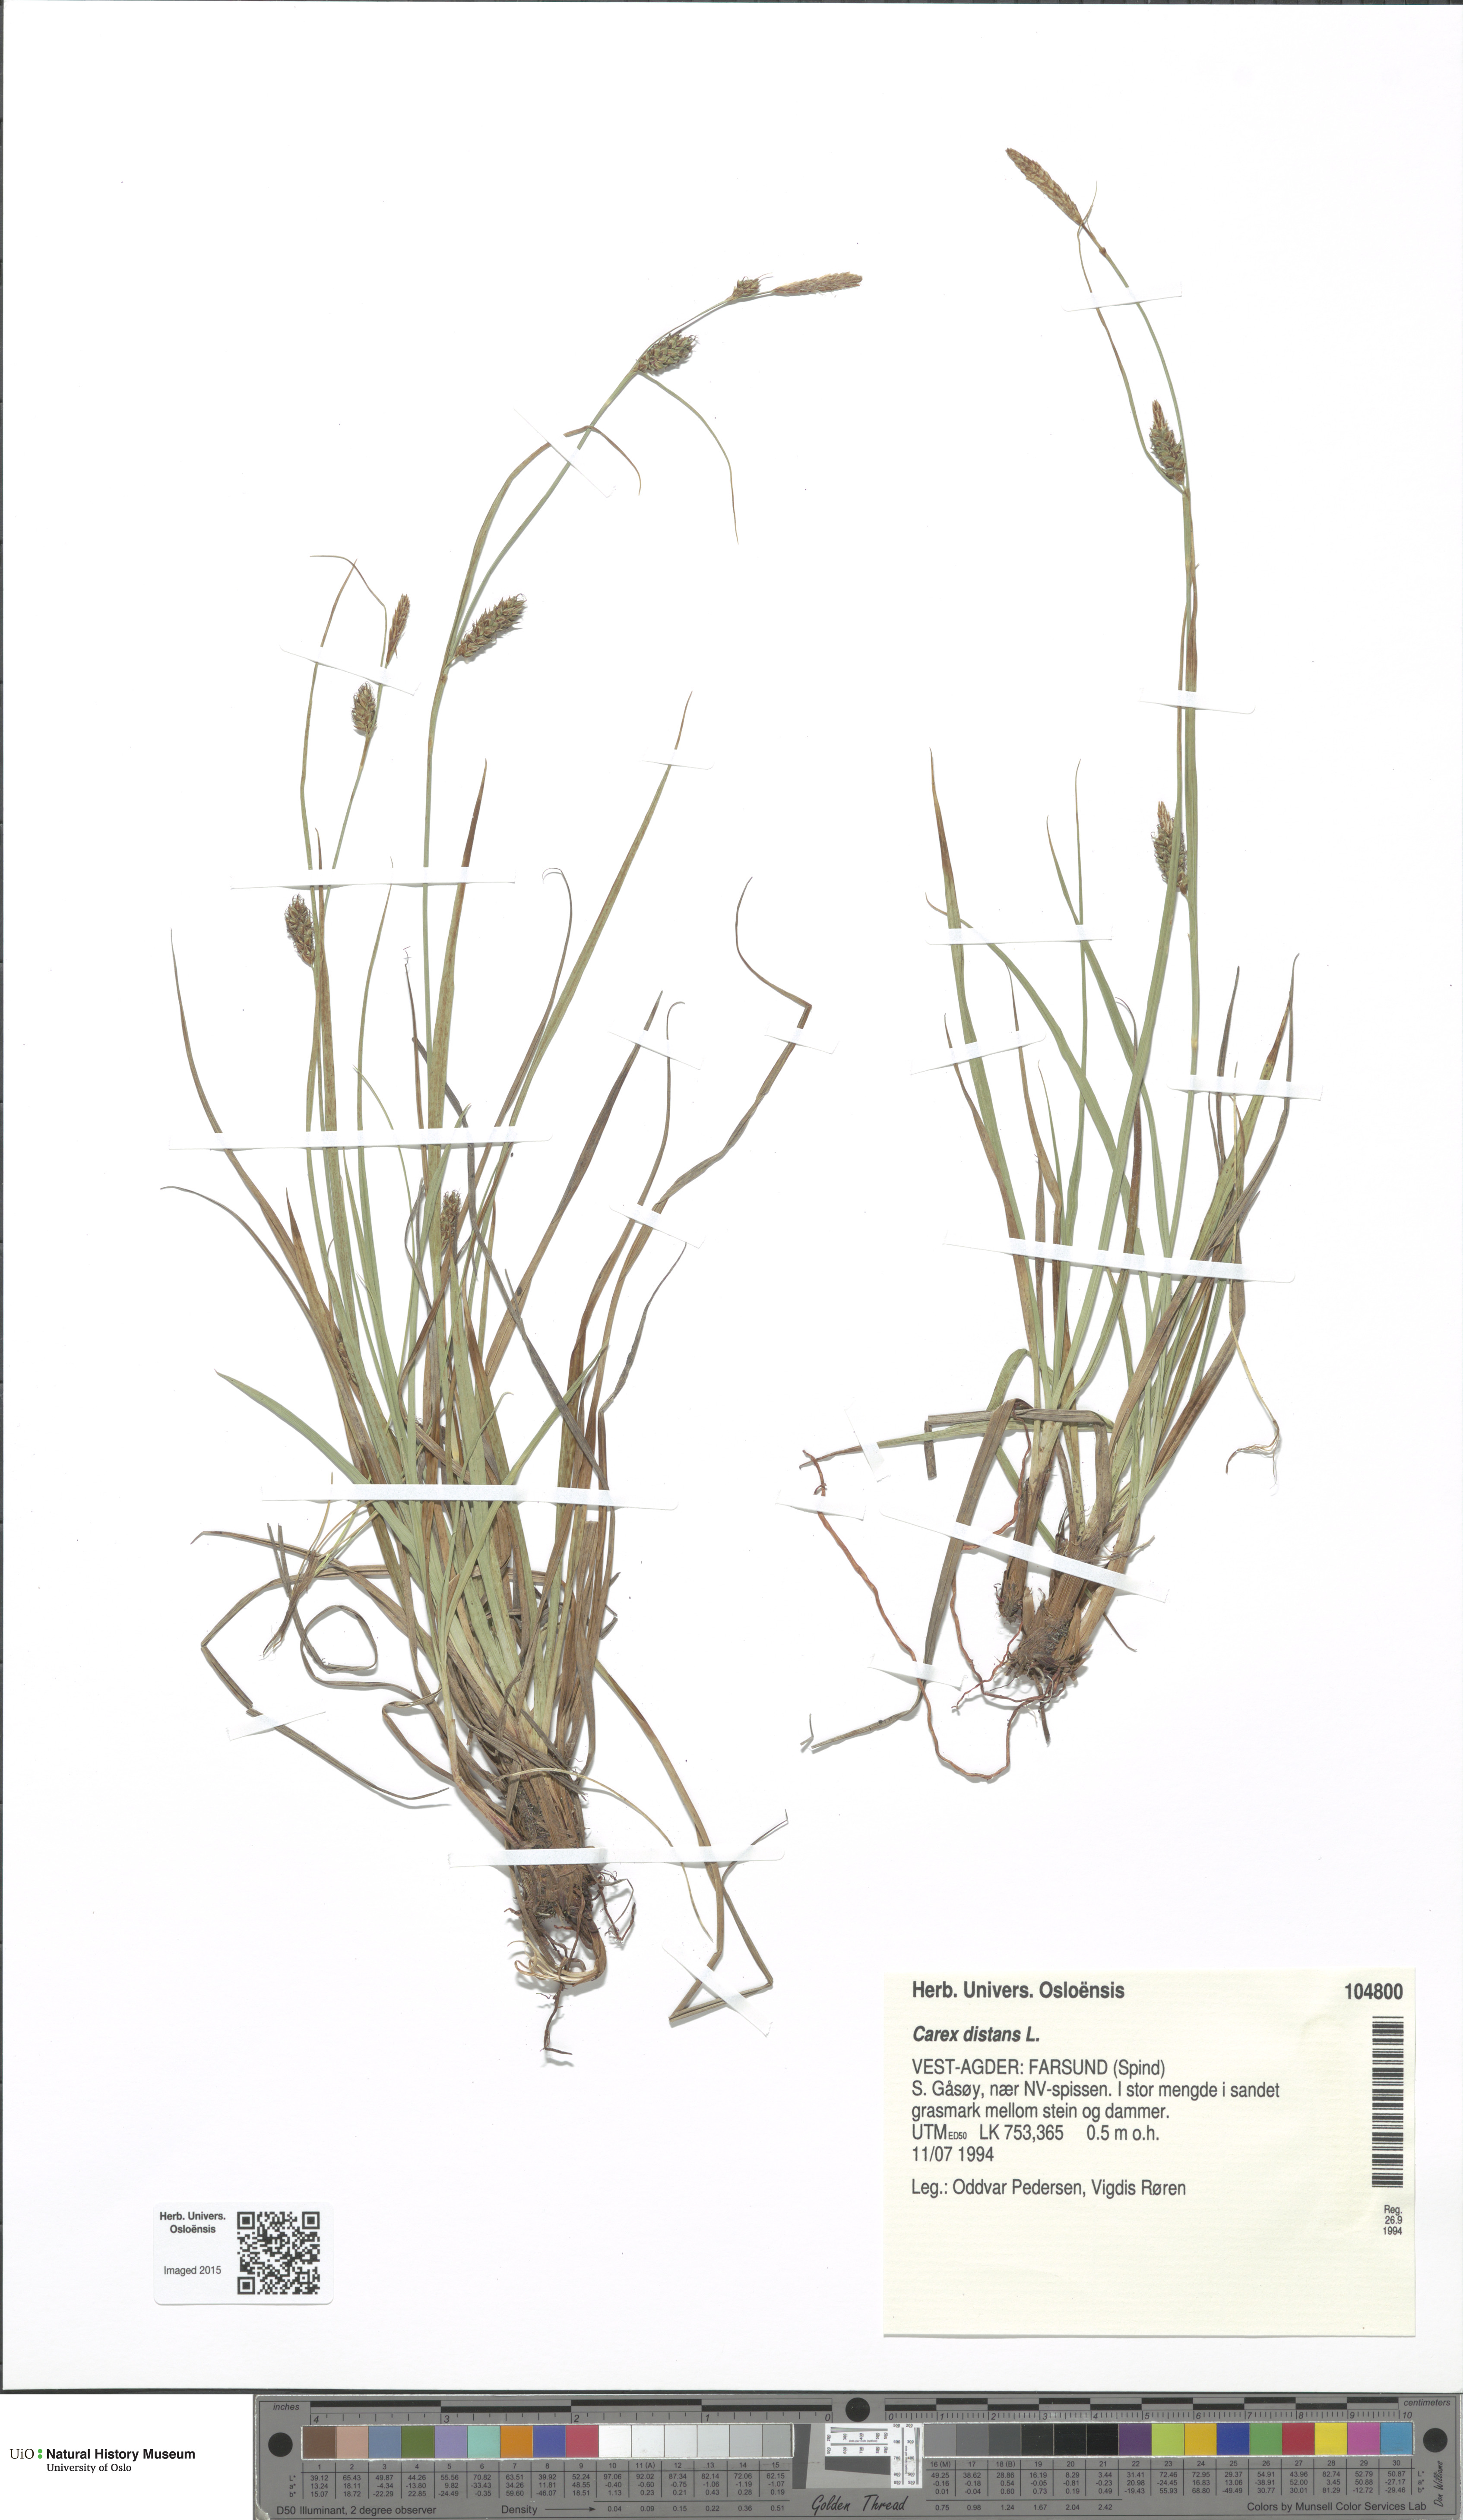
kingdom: Plantae
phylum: Tracheophyta
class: Liliopsida
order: Poales
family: Cyperaceae
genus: Carex
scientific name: Carex distans
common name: Distant sedge
